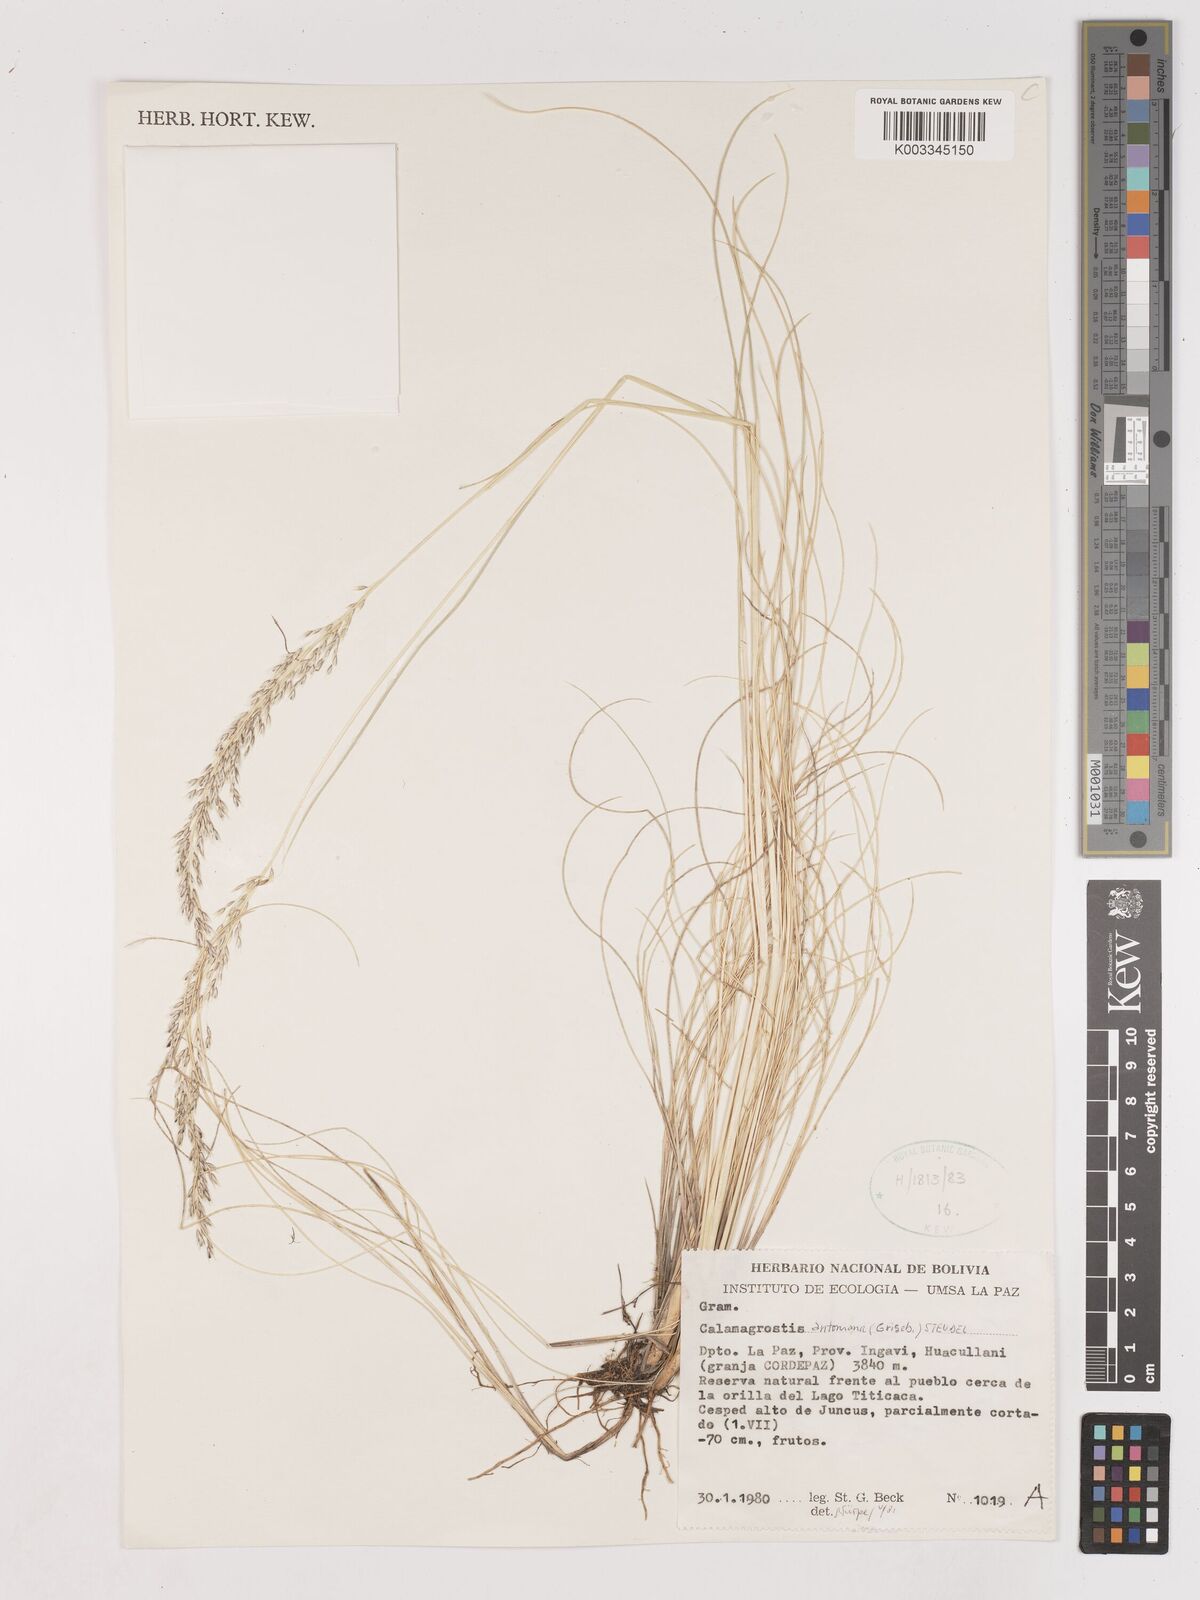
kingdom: Plantae
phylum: Tracheophyta
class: Liliopsida
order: Poales
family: Poaceae
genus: Calamagrostis
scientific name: Calamagrostis
